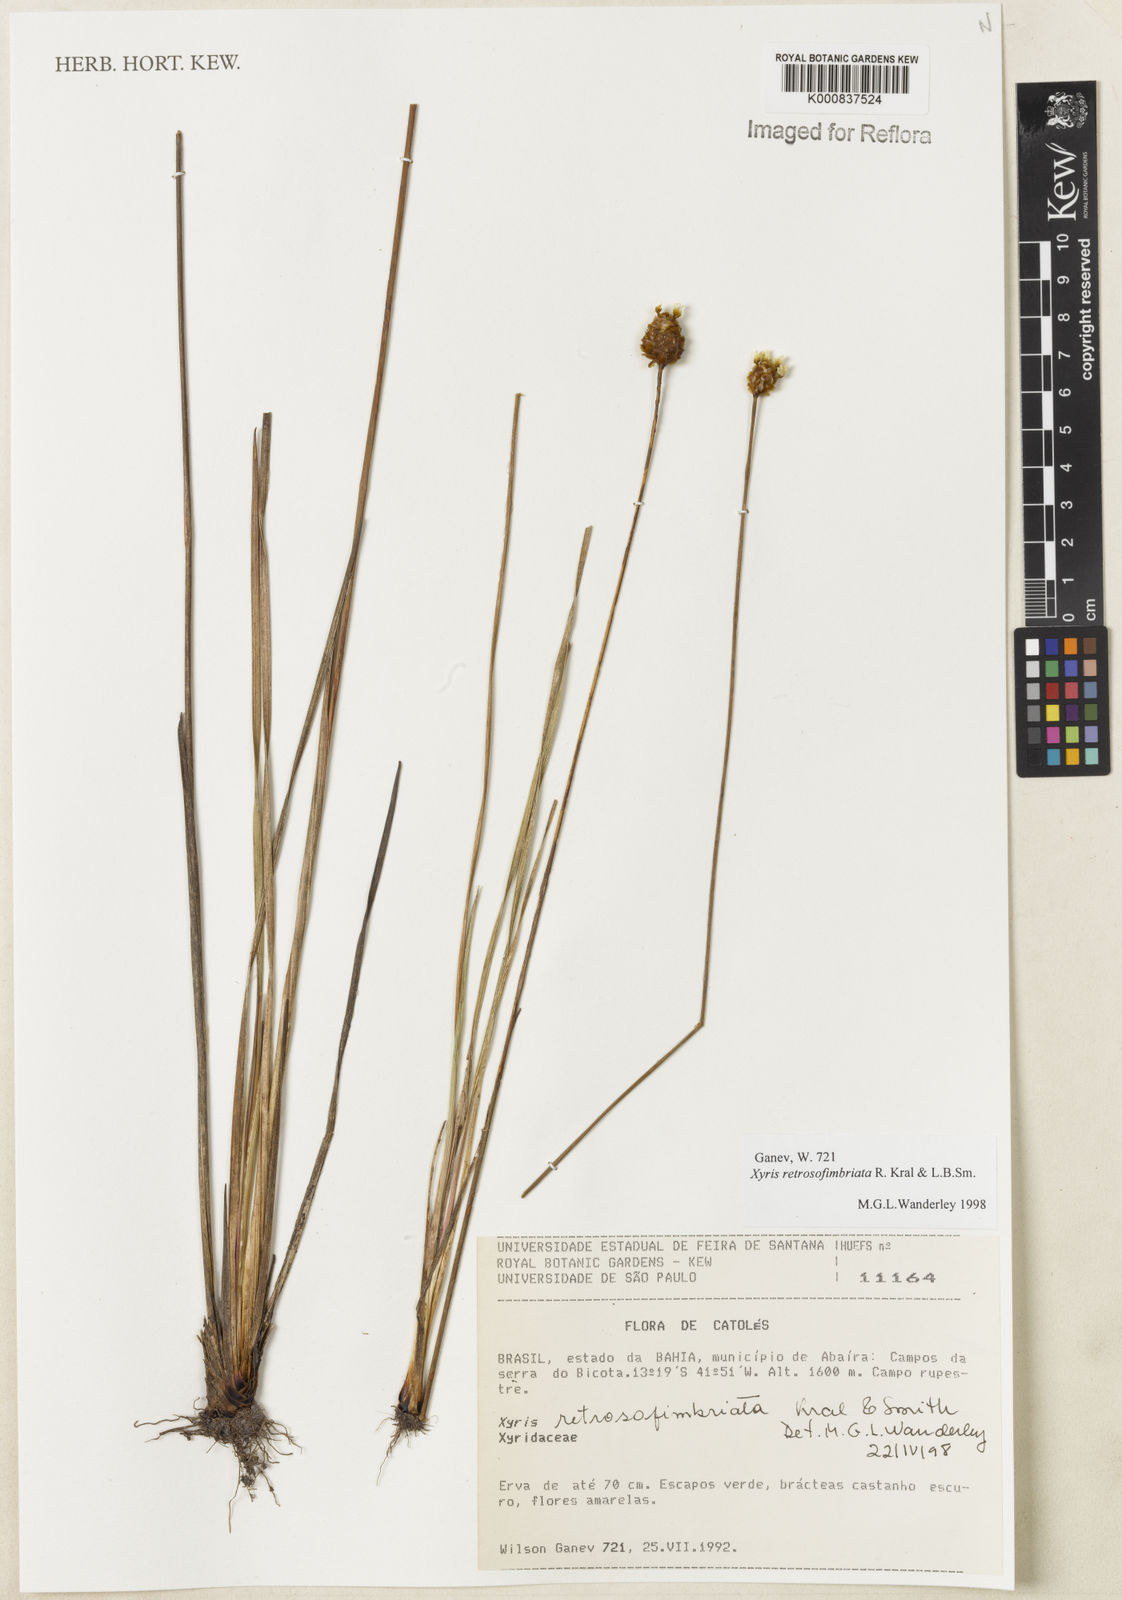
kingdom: Plantae
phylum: Tracheophyta
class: Liliopsida
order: Poales
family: Xyridaceae
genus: Xyris
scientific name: Xyris
